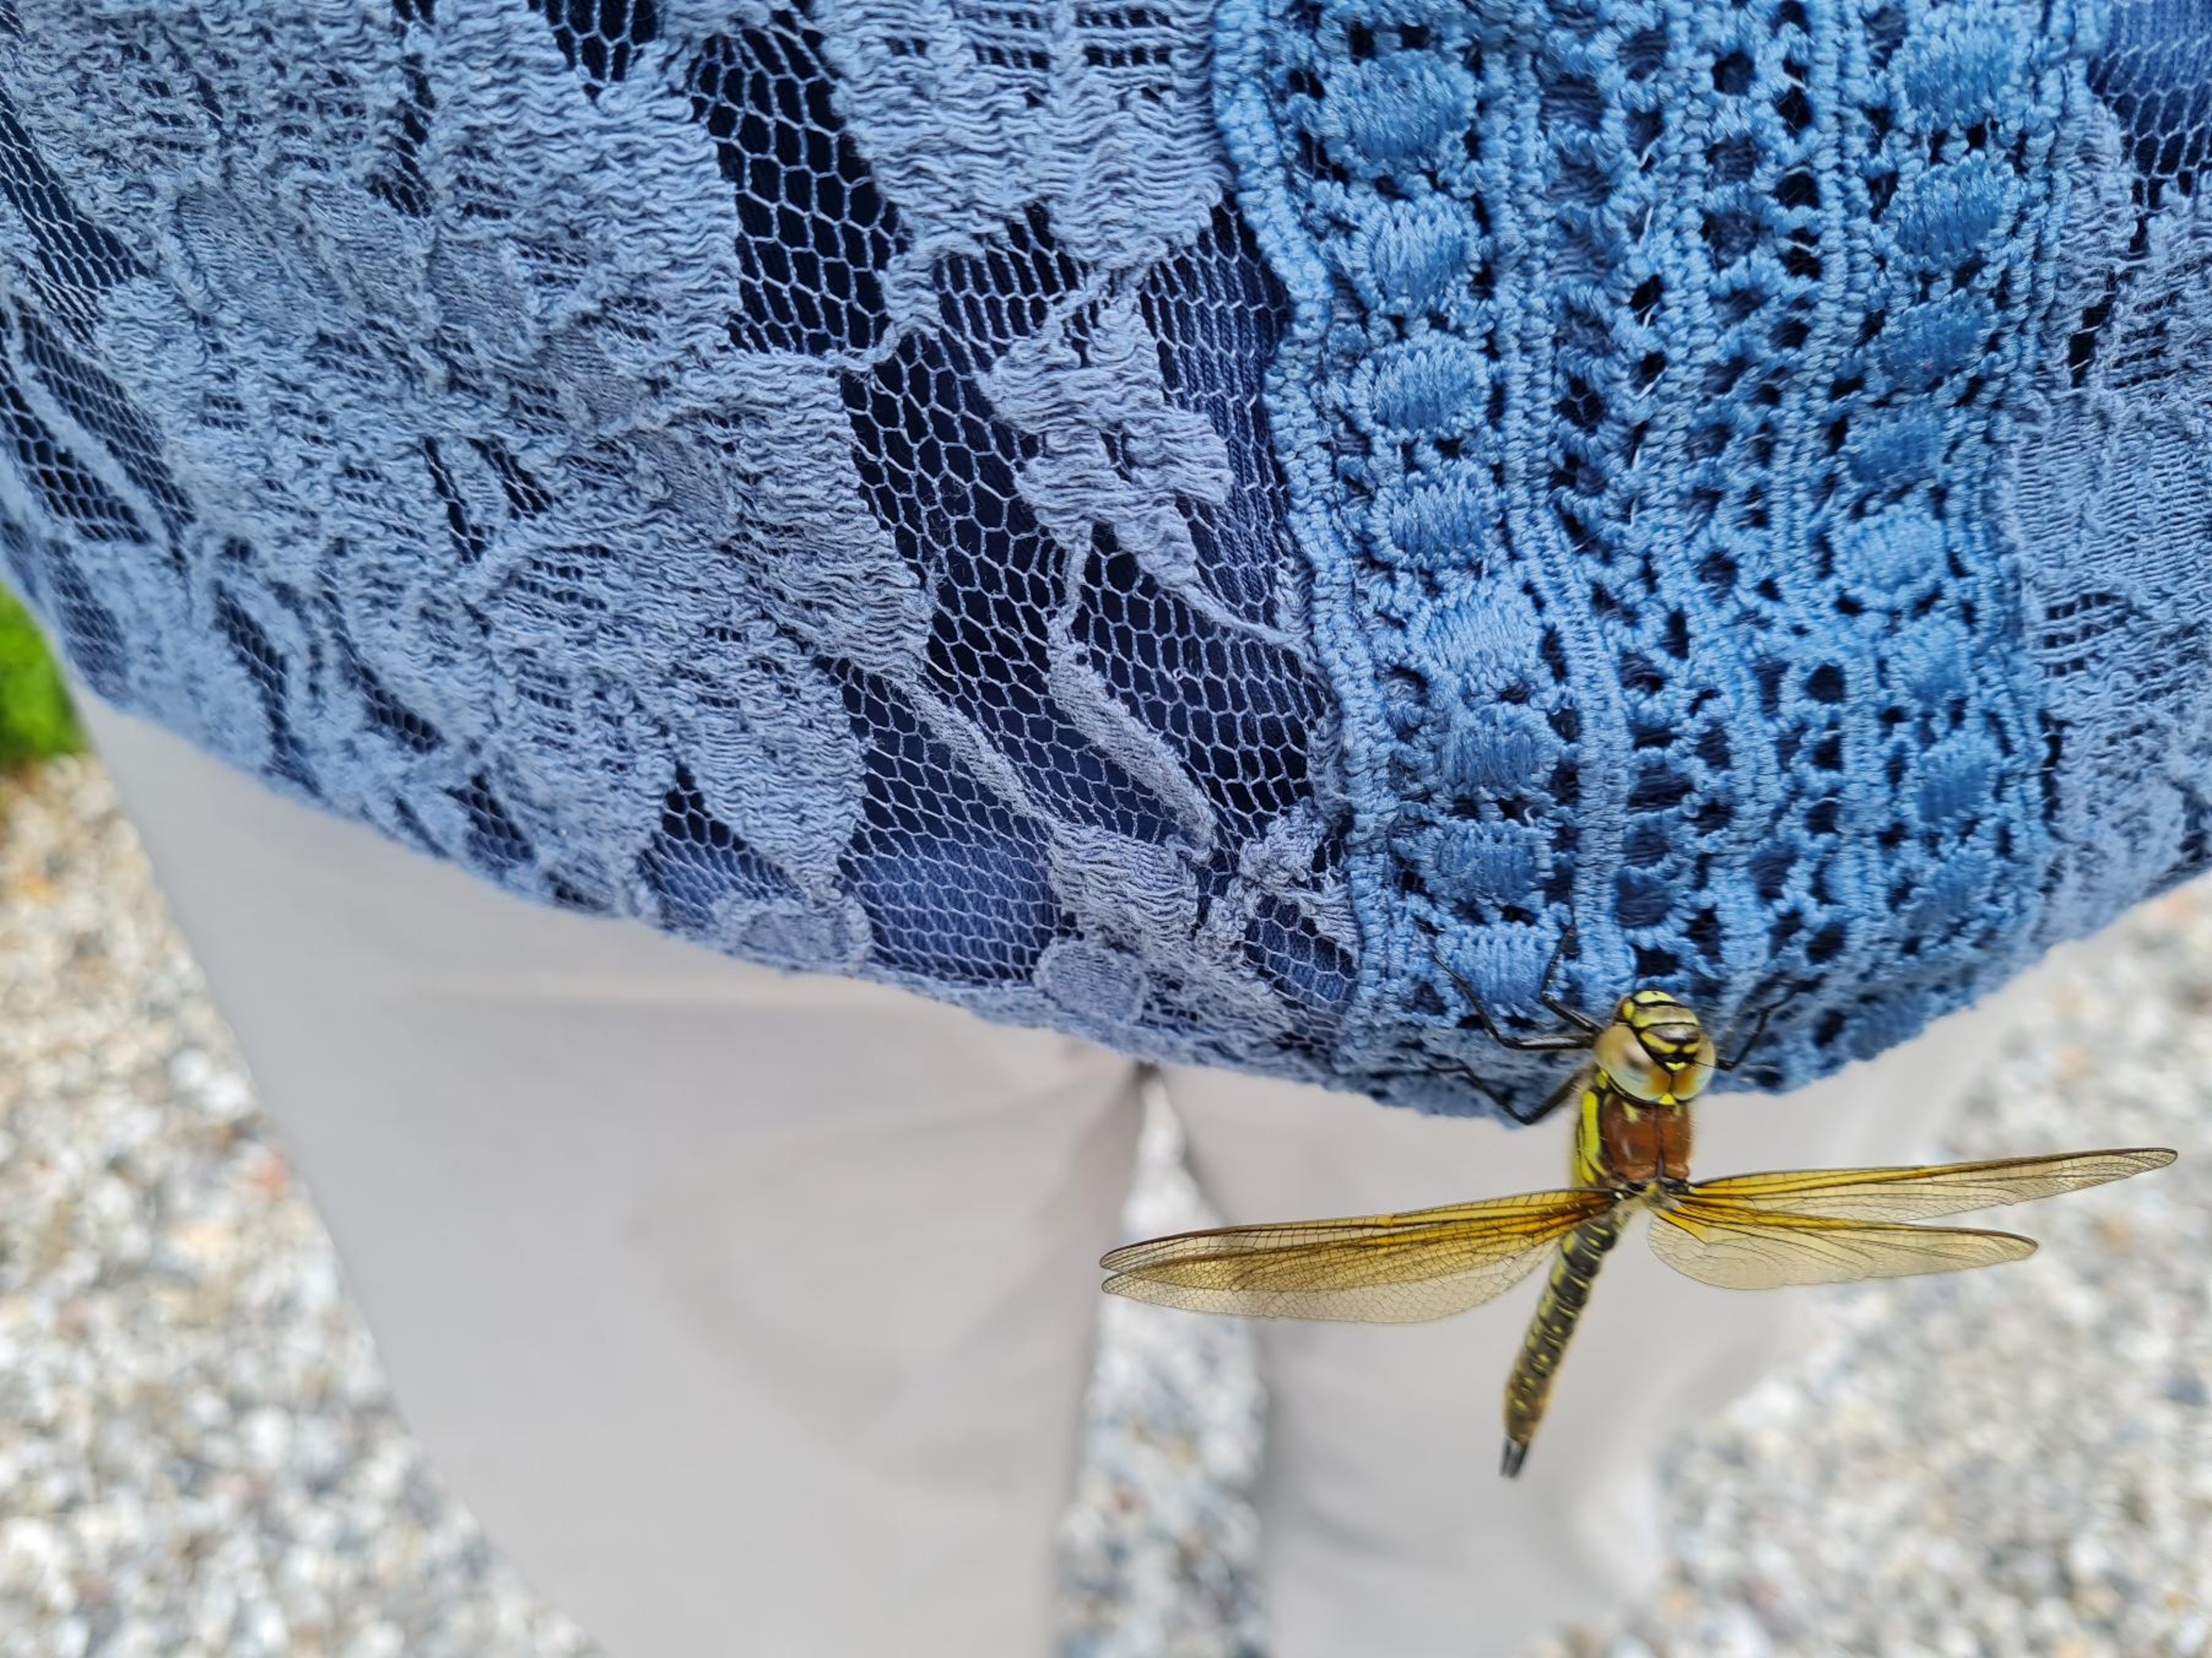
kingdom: Animalia
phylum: Arthropoda
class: Insecta
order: Odonata
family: Aeshnidae
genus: Brachytron
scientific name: Brachytron pratense
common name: Håret mosaikguldsmed
